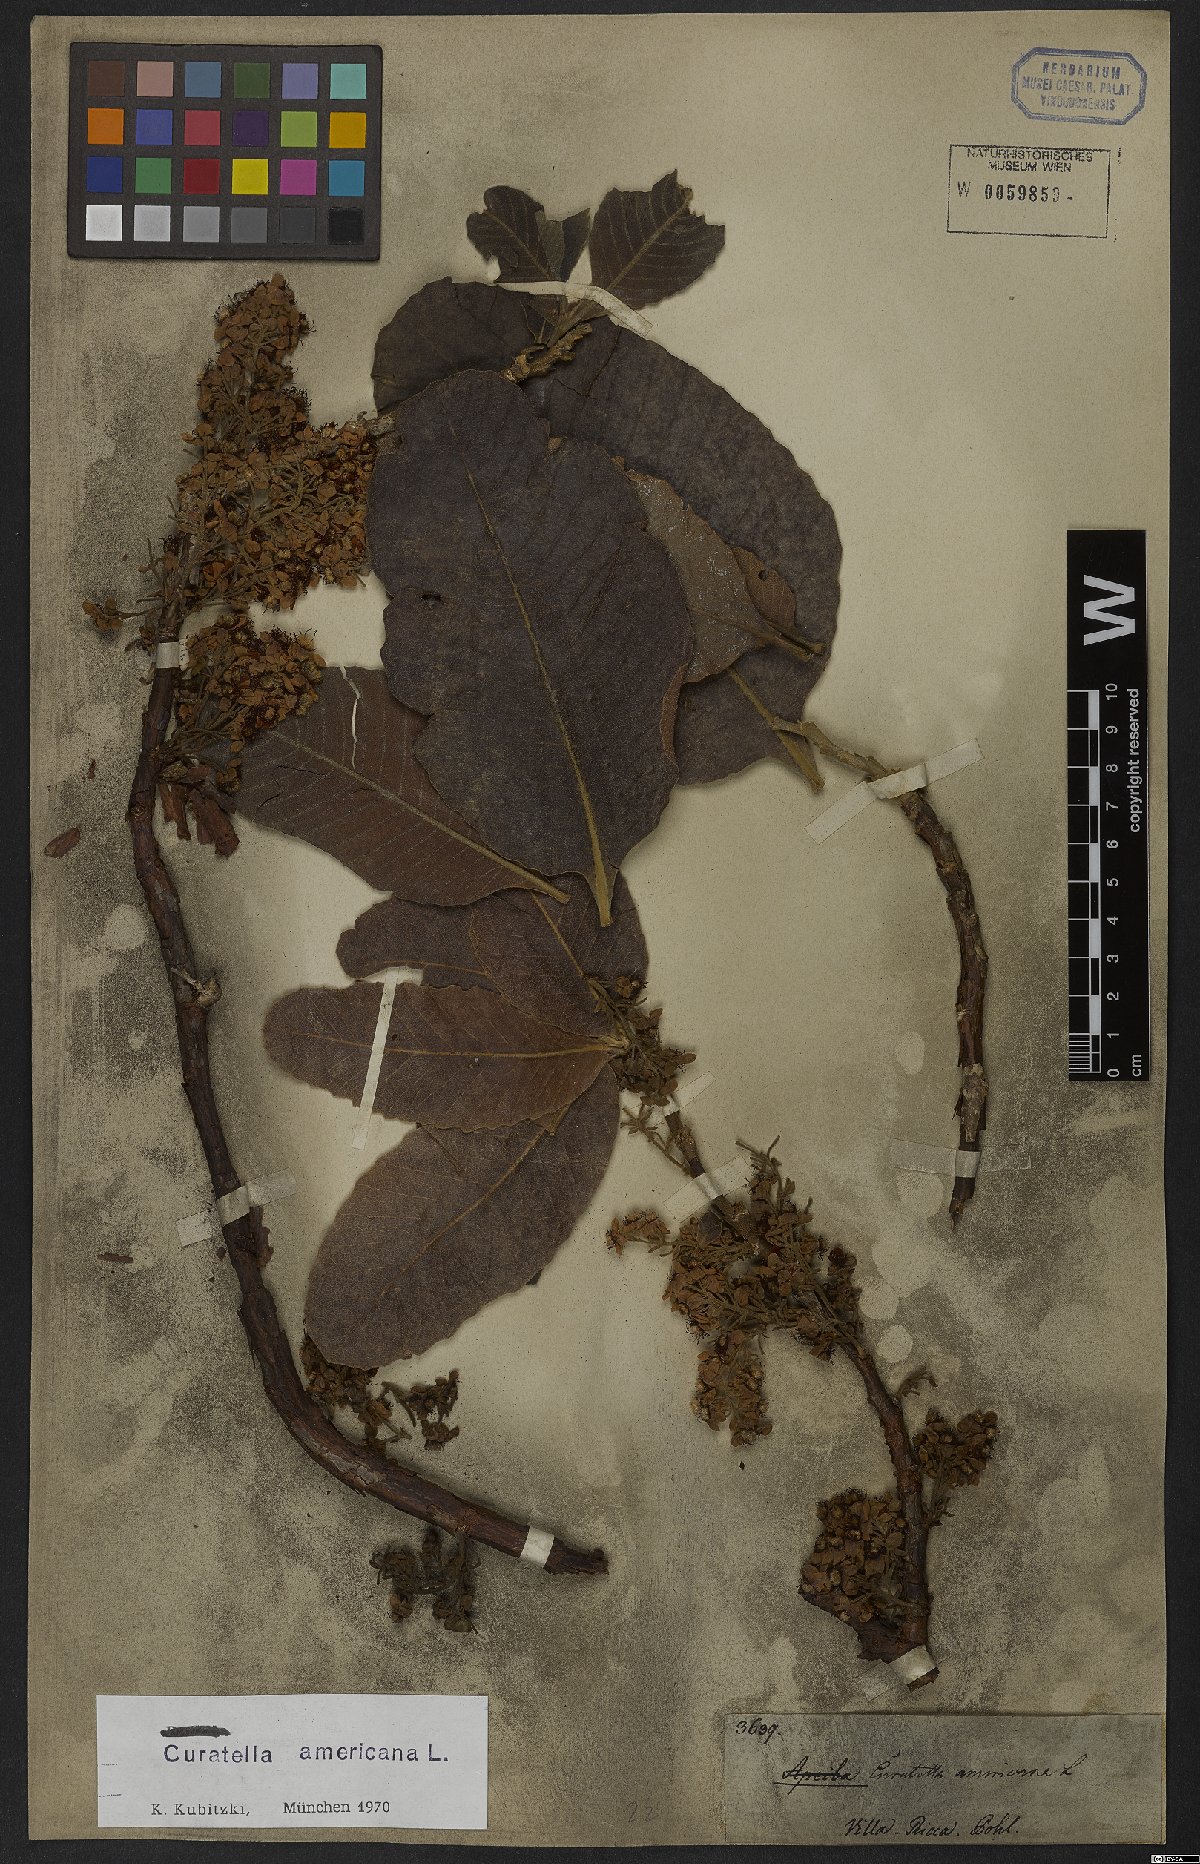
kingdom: Plantae
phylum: Tracheophyta
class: Magnoliopsida
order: Dilleniales
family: Dilleniaceae
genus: Curatella
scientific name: Curatella americana
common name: Sandpaper tree
